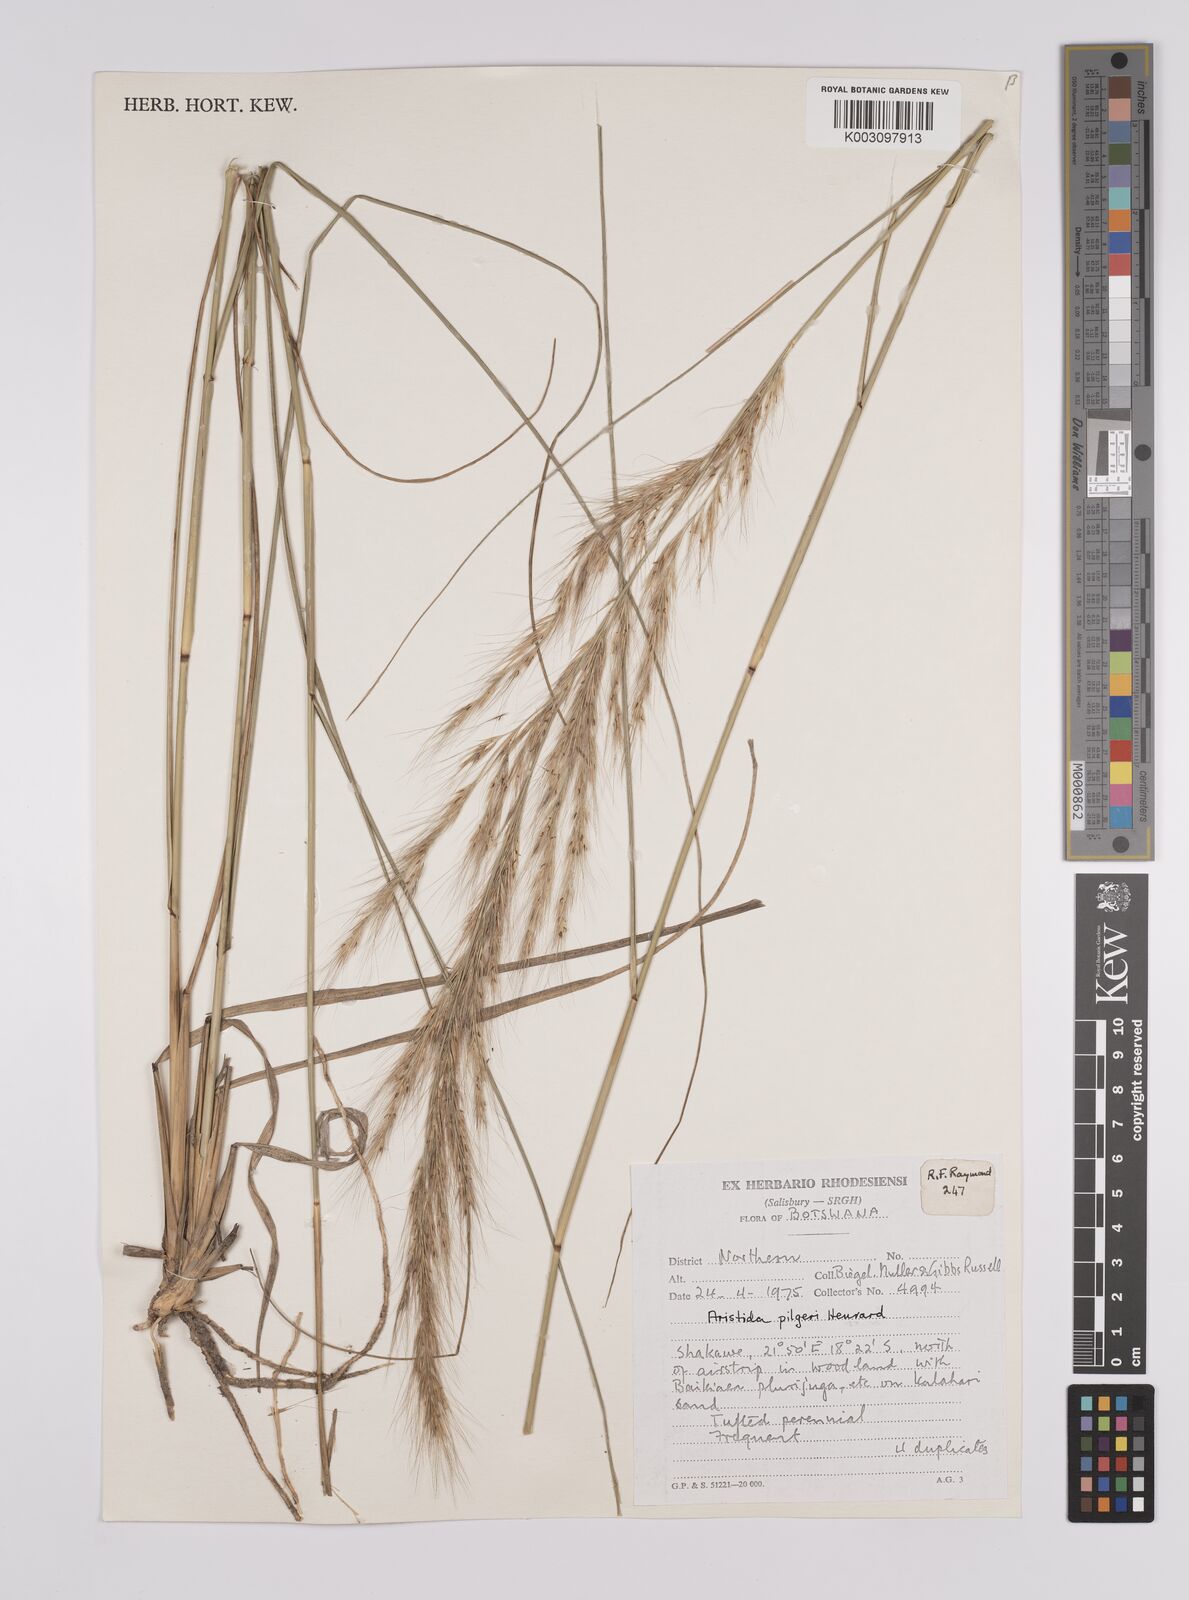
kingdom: Plantae
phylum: Tracheophyta
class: Liliopsida
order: Poales
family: Poaceae
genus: Aristida
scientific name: Aristida pilgeri
